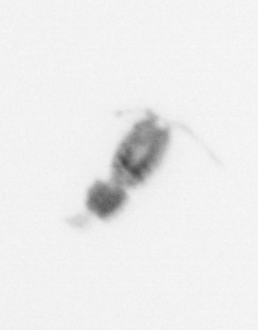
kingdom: Animalia
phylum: Arthropoda
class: Copepoda
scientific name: Copepoda
